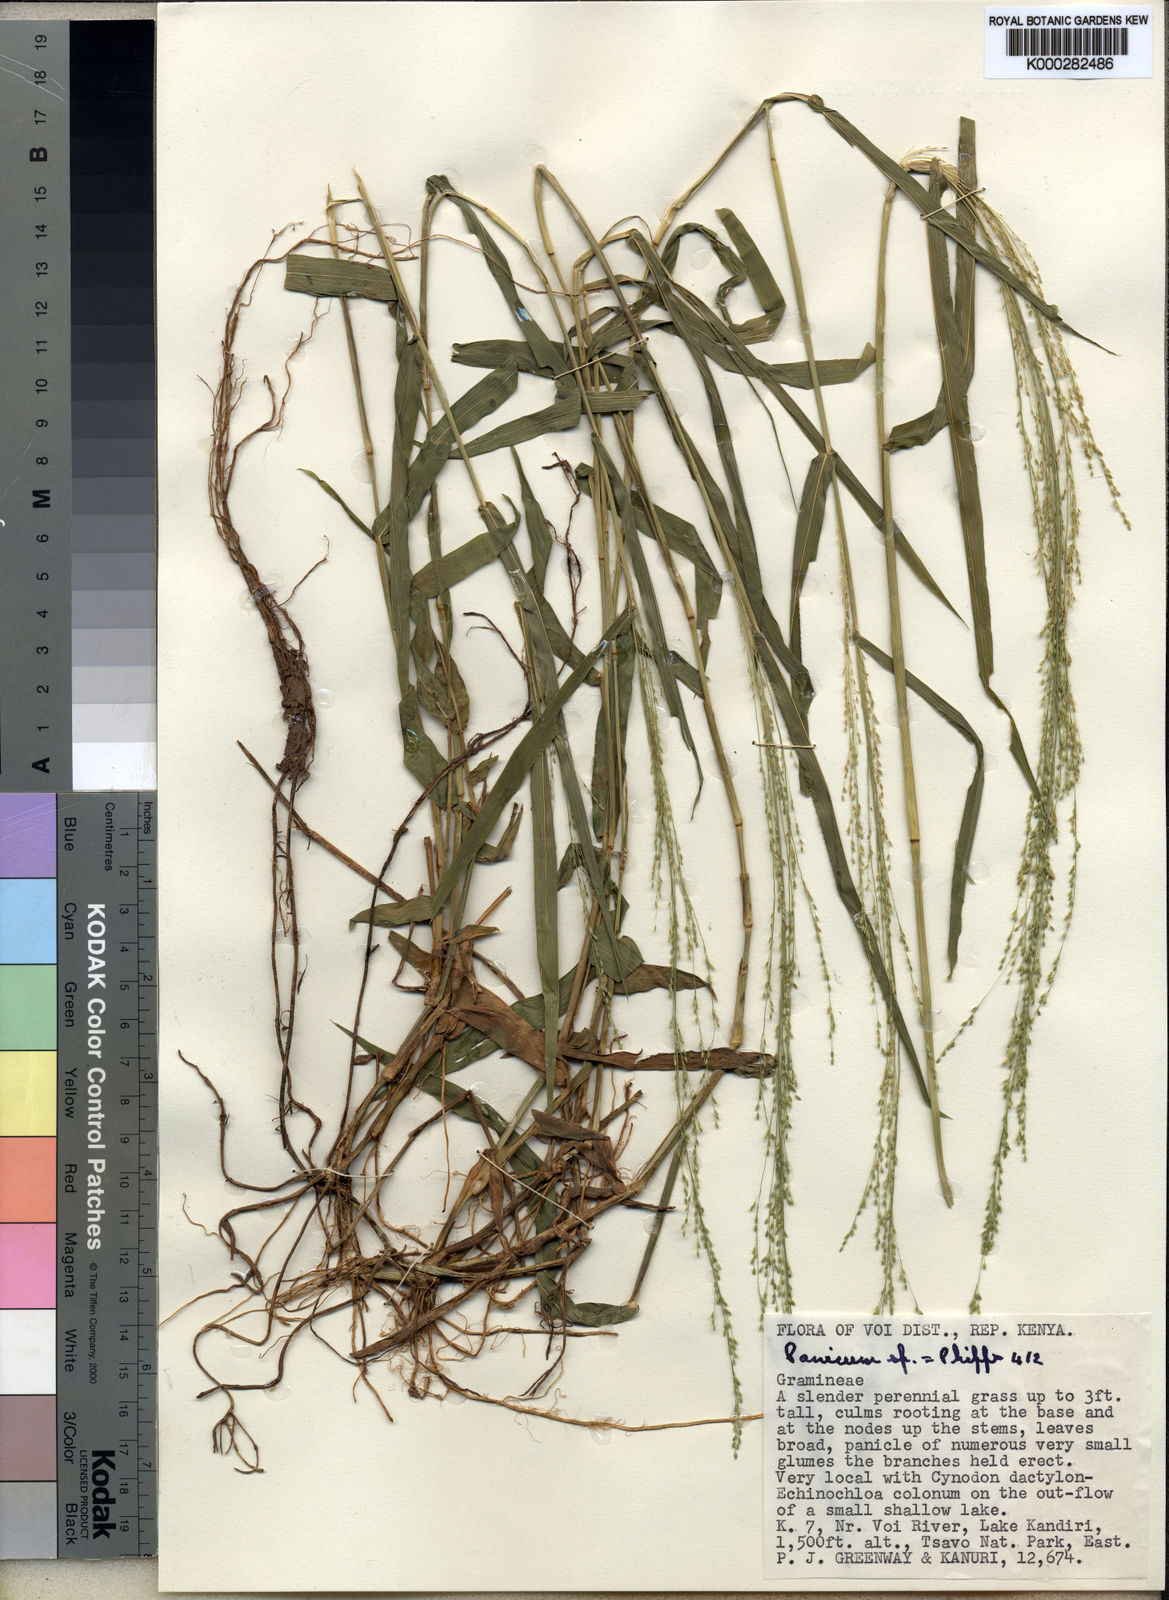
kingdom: Plantae
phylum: Tracheophyta
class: Liliopsida
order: Poales
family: Poaceae
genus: Panicum
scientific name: Panicum nudiflorum
